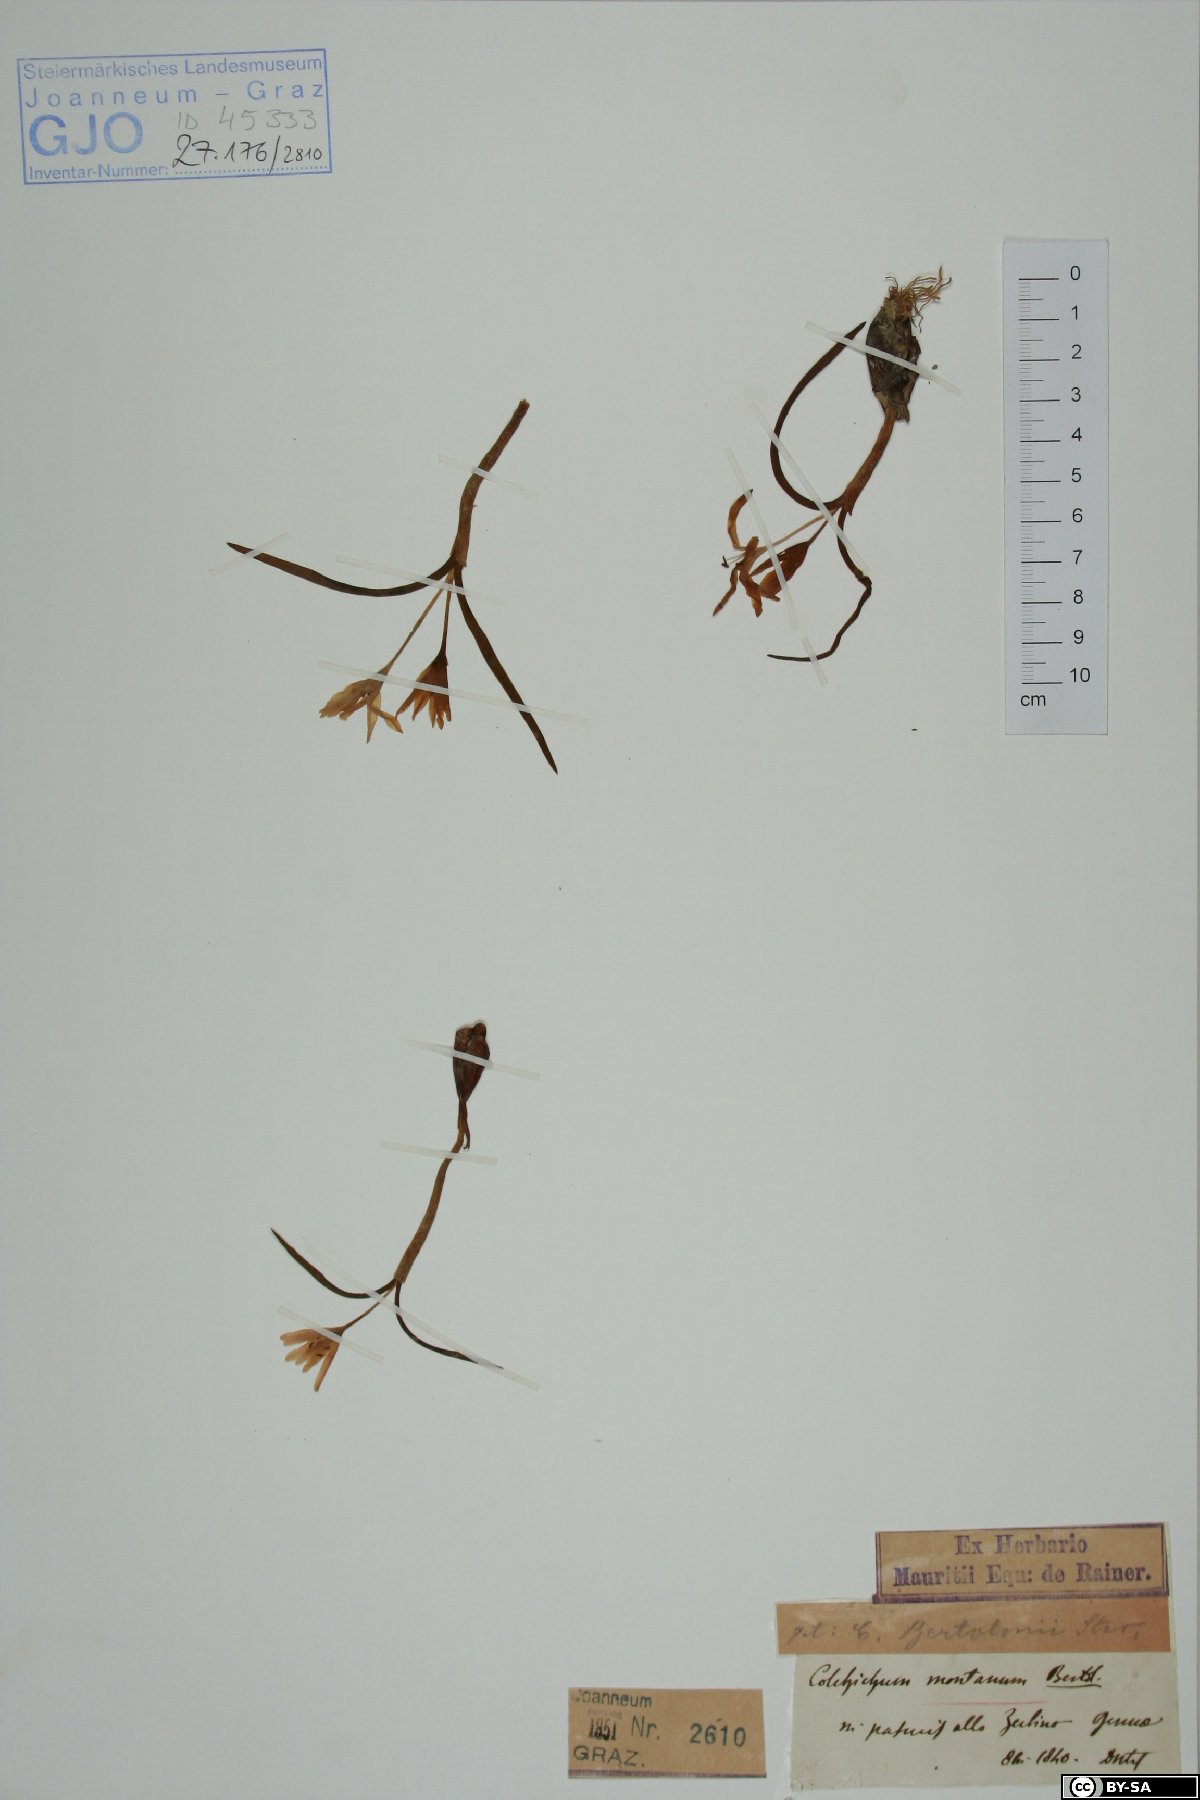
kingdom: Plantae
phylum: Tracheophyta
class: Liliopsida
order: Liliales
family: Colchicaceae
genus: Colchicum
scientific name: Colchicum montanum
